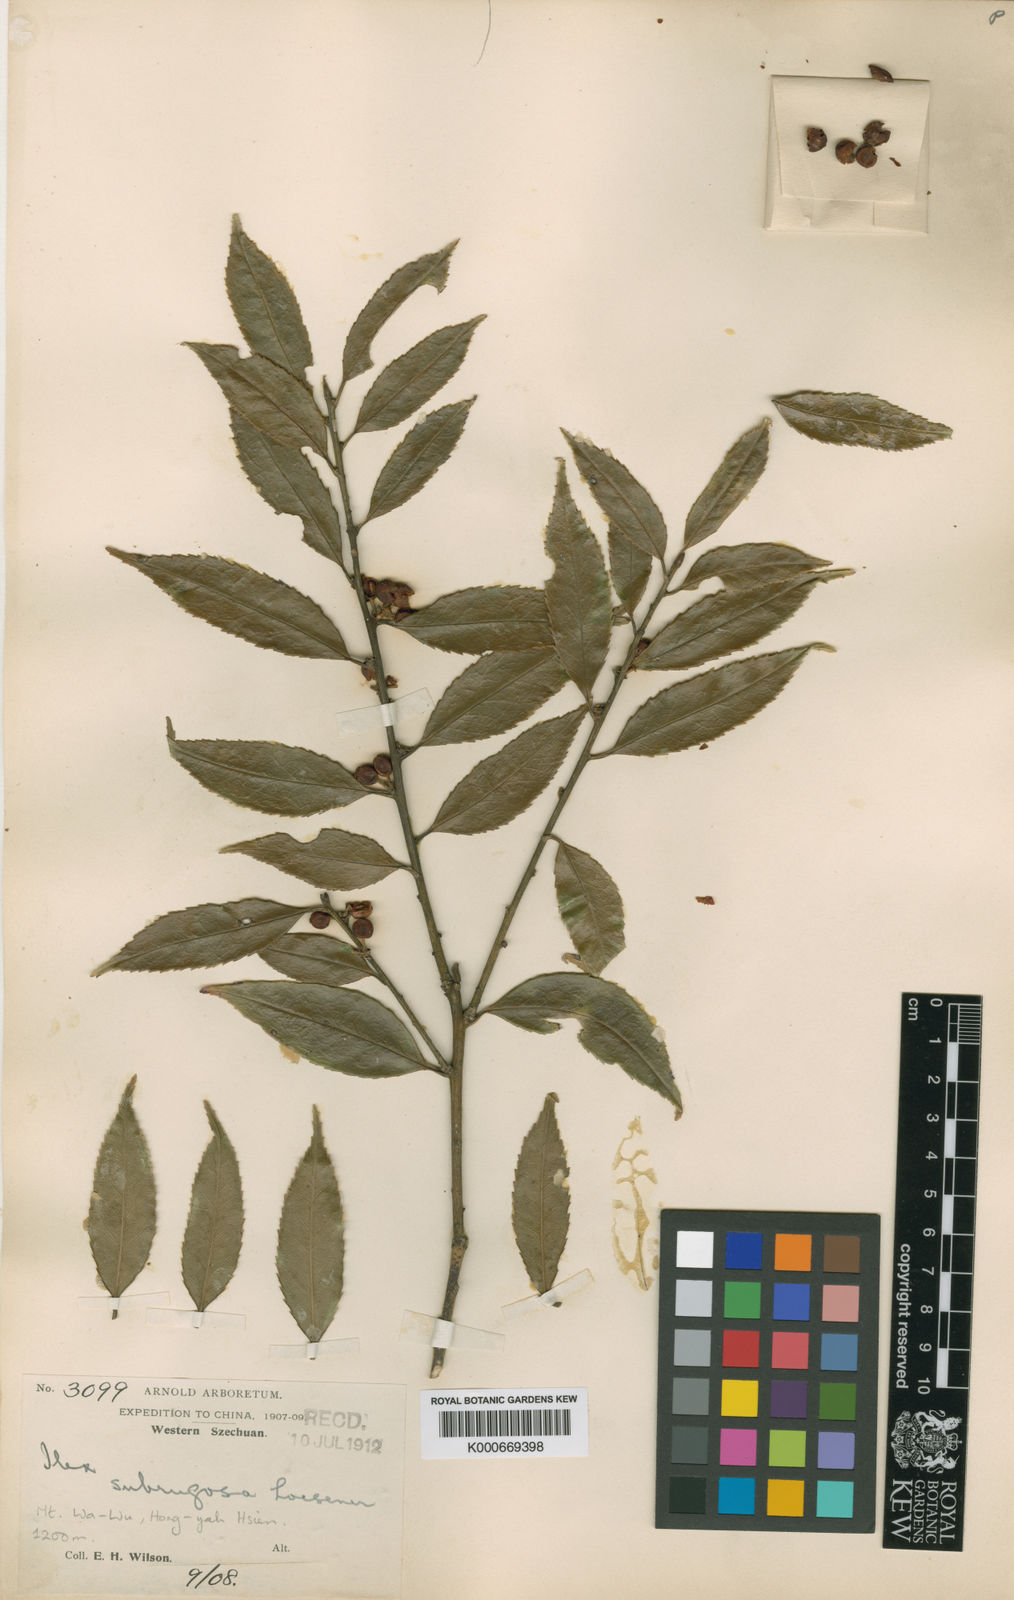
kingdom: Plantae
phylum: Tracheophyta
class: Magnoliopsida
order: Aquifoliales
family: Aquifoliaceae
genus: Ilex
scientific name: Ilex subrugosa
